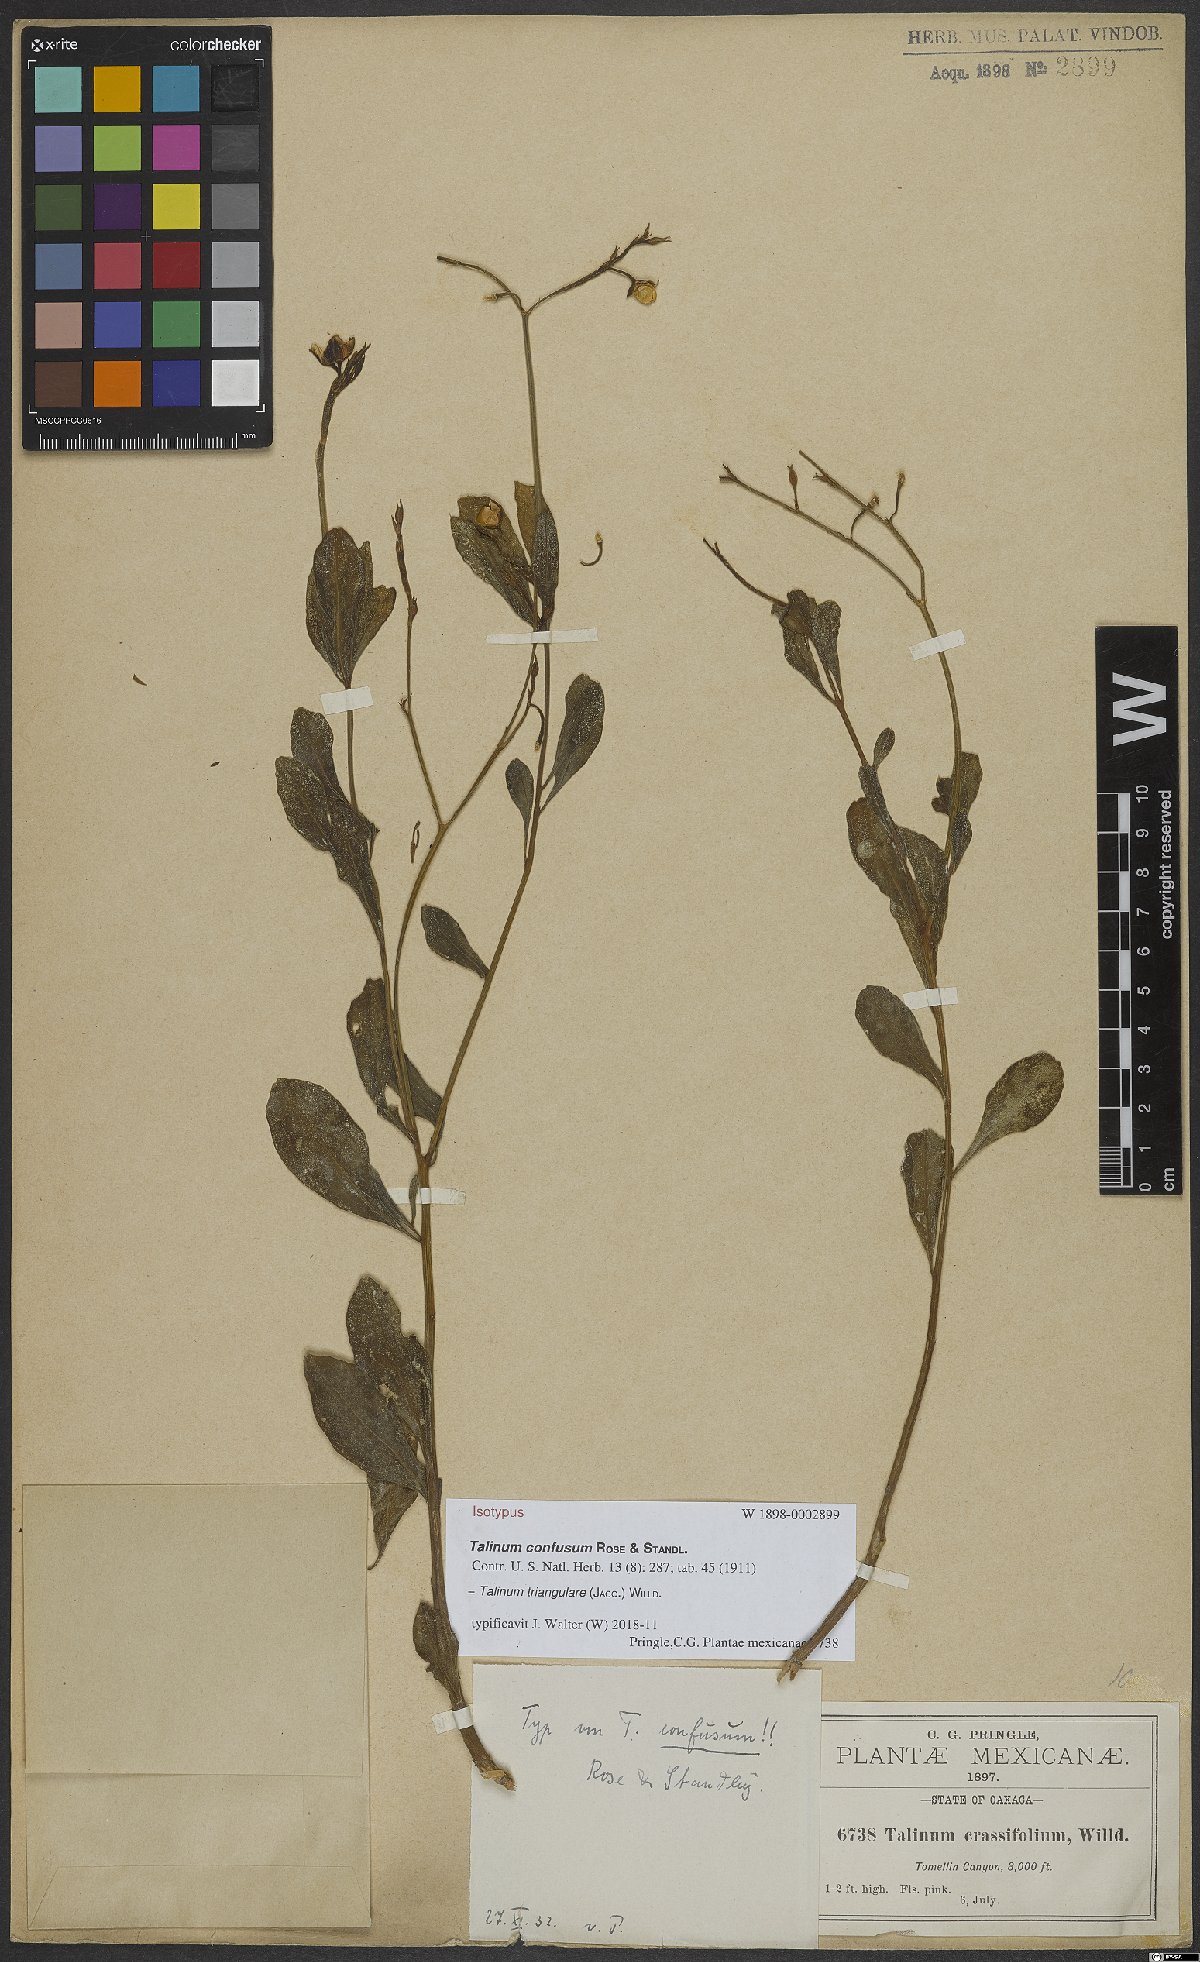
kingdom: Plantae
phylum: Tracheophyta
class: Magnoliopsida
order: Caryophyllales
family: Talinaceae
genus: Talinum
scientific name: Talinum fruticosum
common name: Verdolaga-francesa
